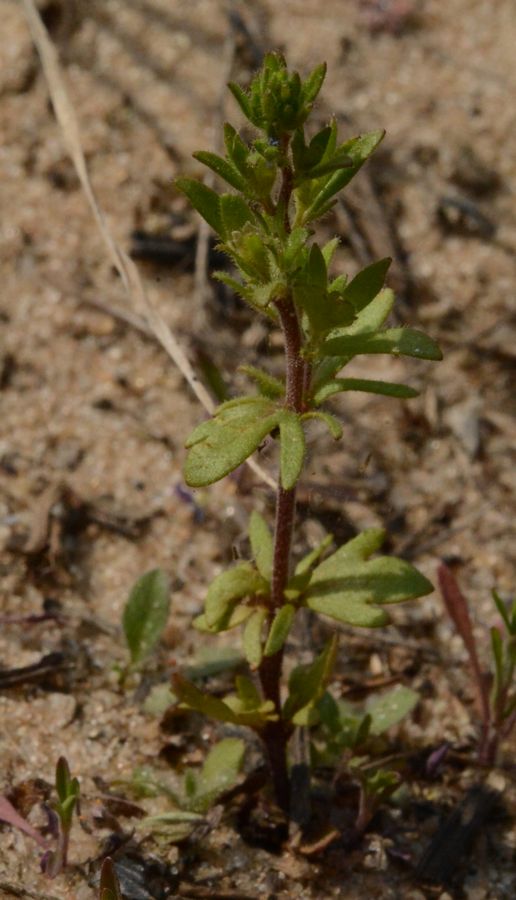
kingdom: Plantae
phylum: Tracheophyta
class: Magnoliopsida
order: Lamiales
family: Plantaginaceae
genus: Veronica
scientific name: Veronica verna
